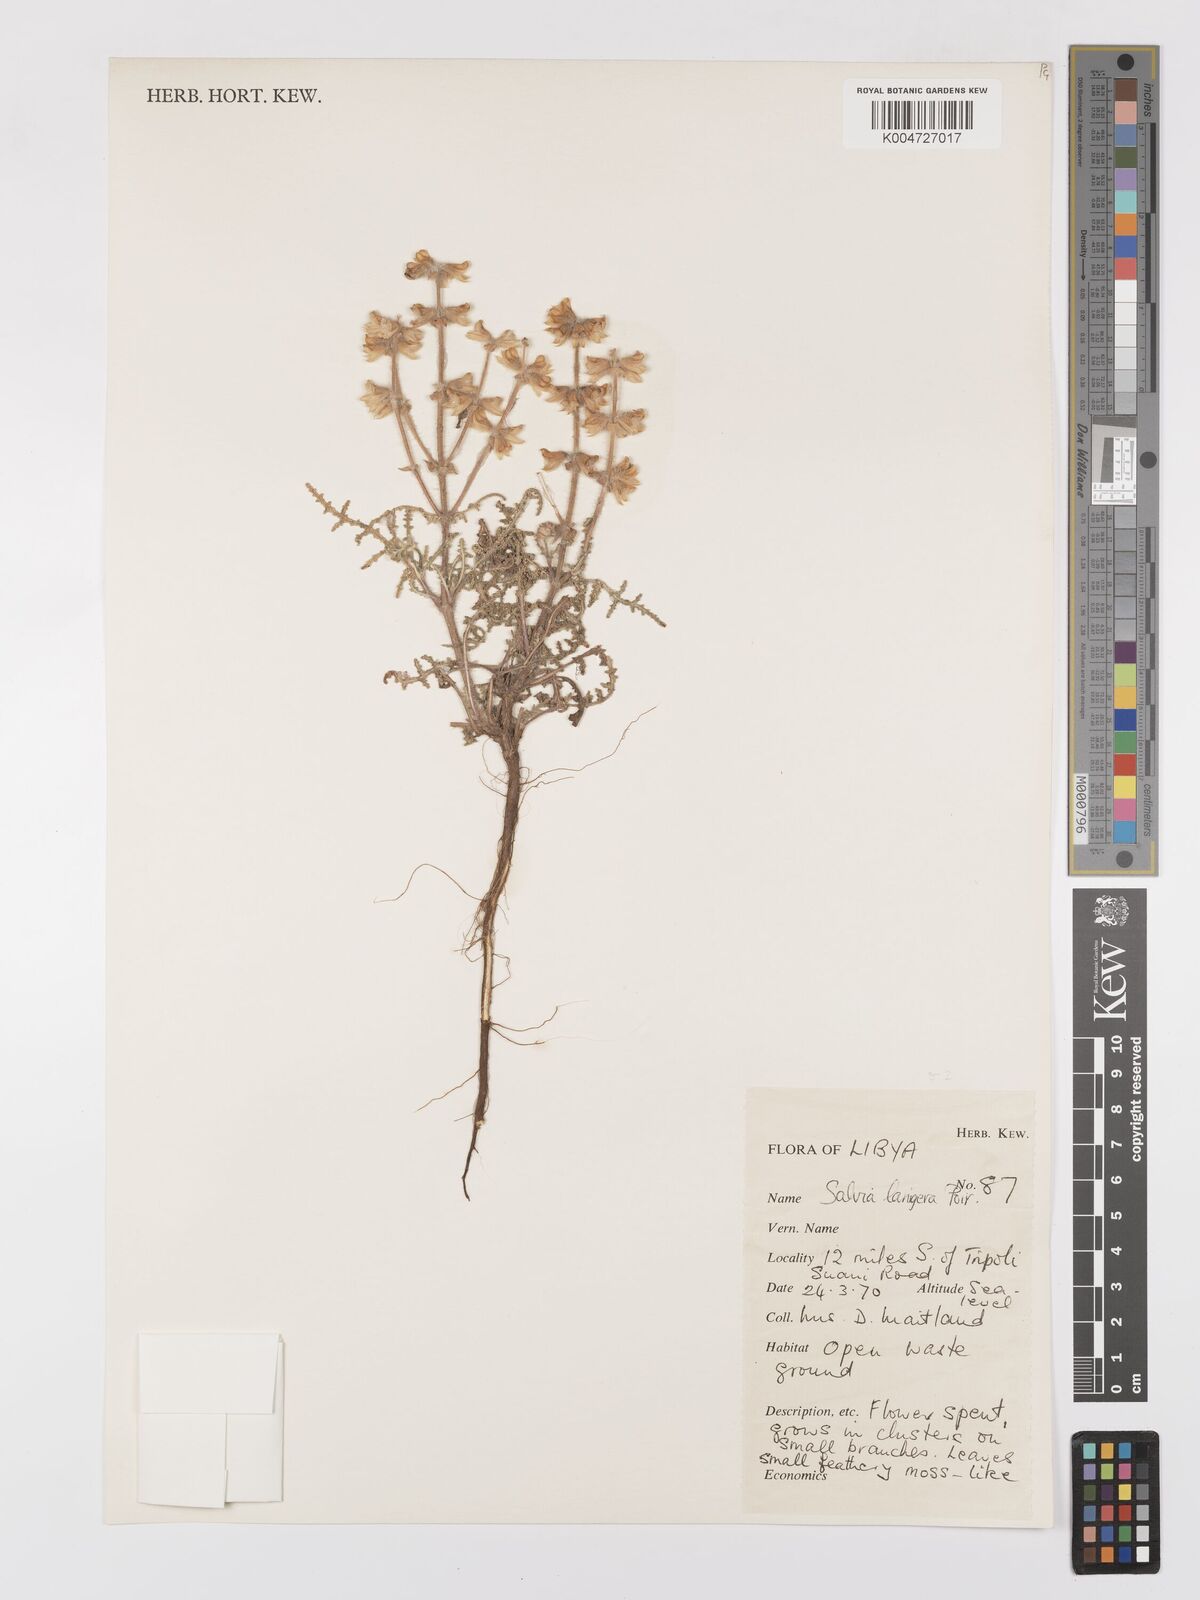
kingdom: Plantae
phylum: Tracheophyta
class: Magnoliopsida
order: Lamiales
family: Lamiaceae
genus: Salvia
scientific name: Salvia lanigera
